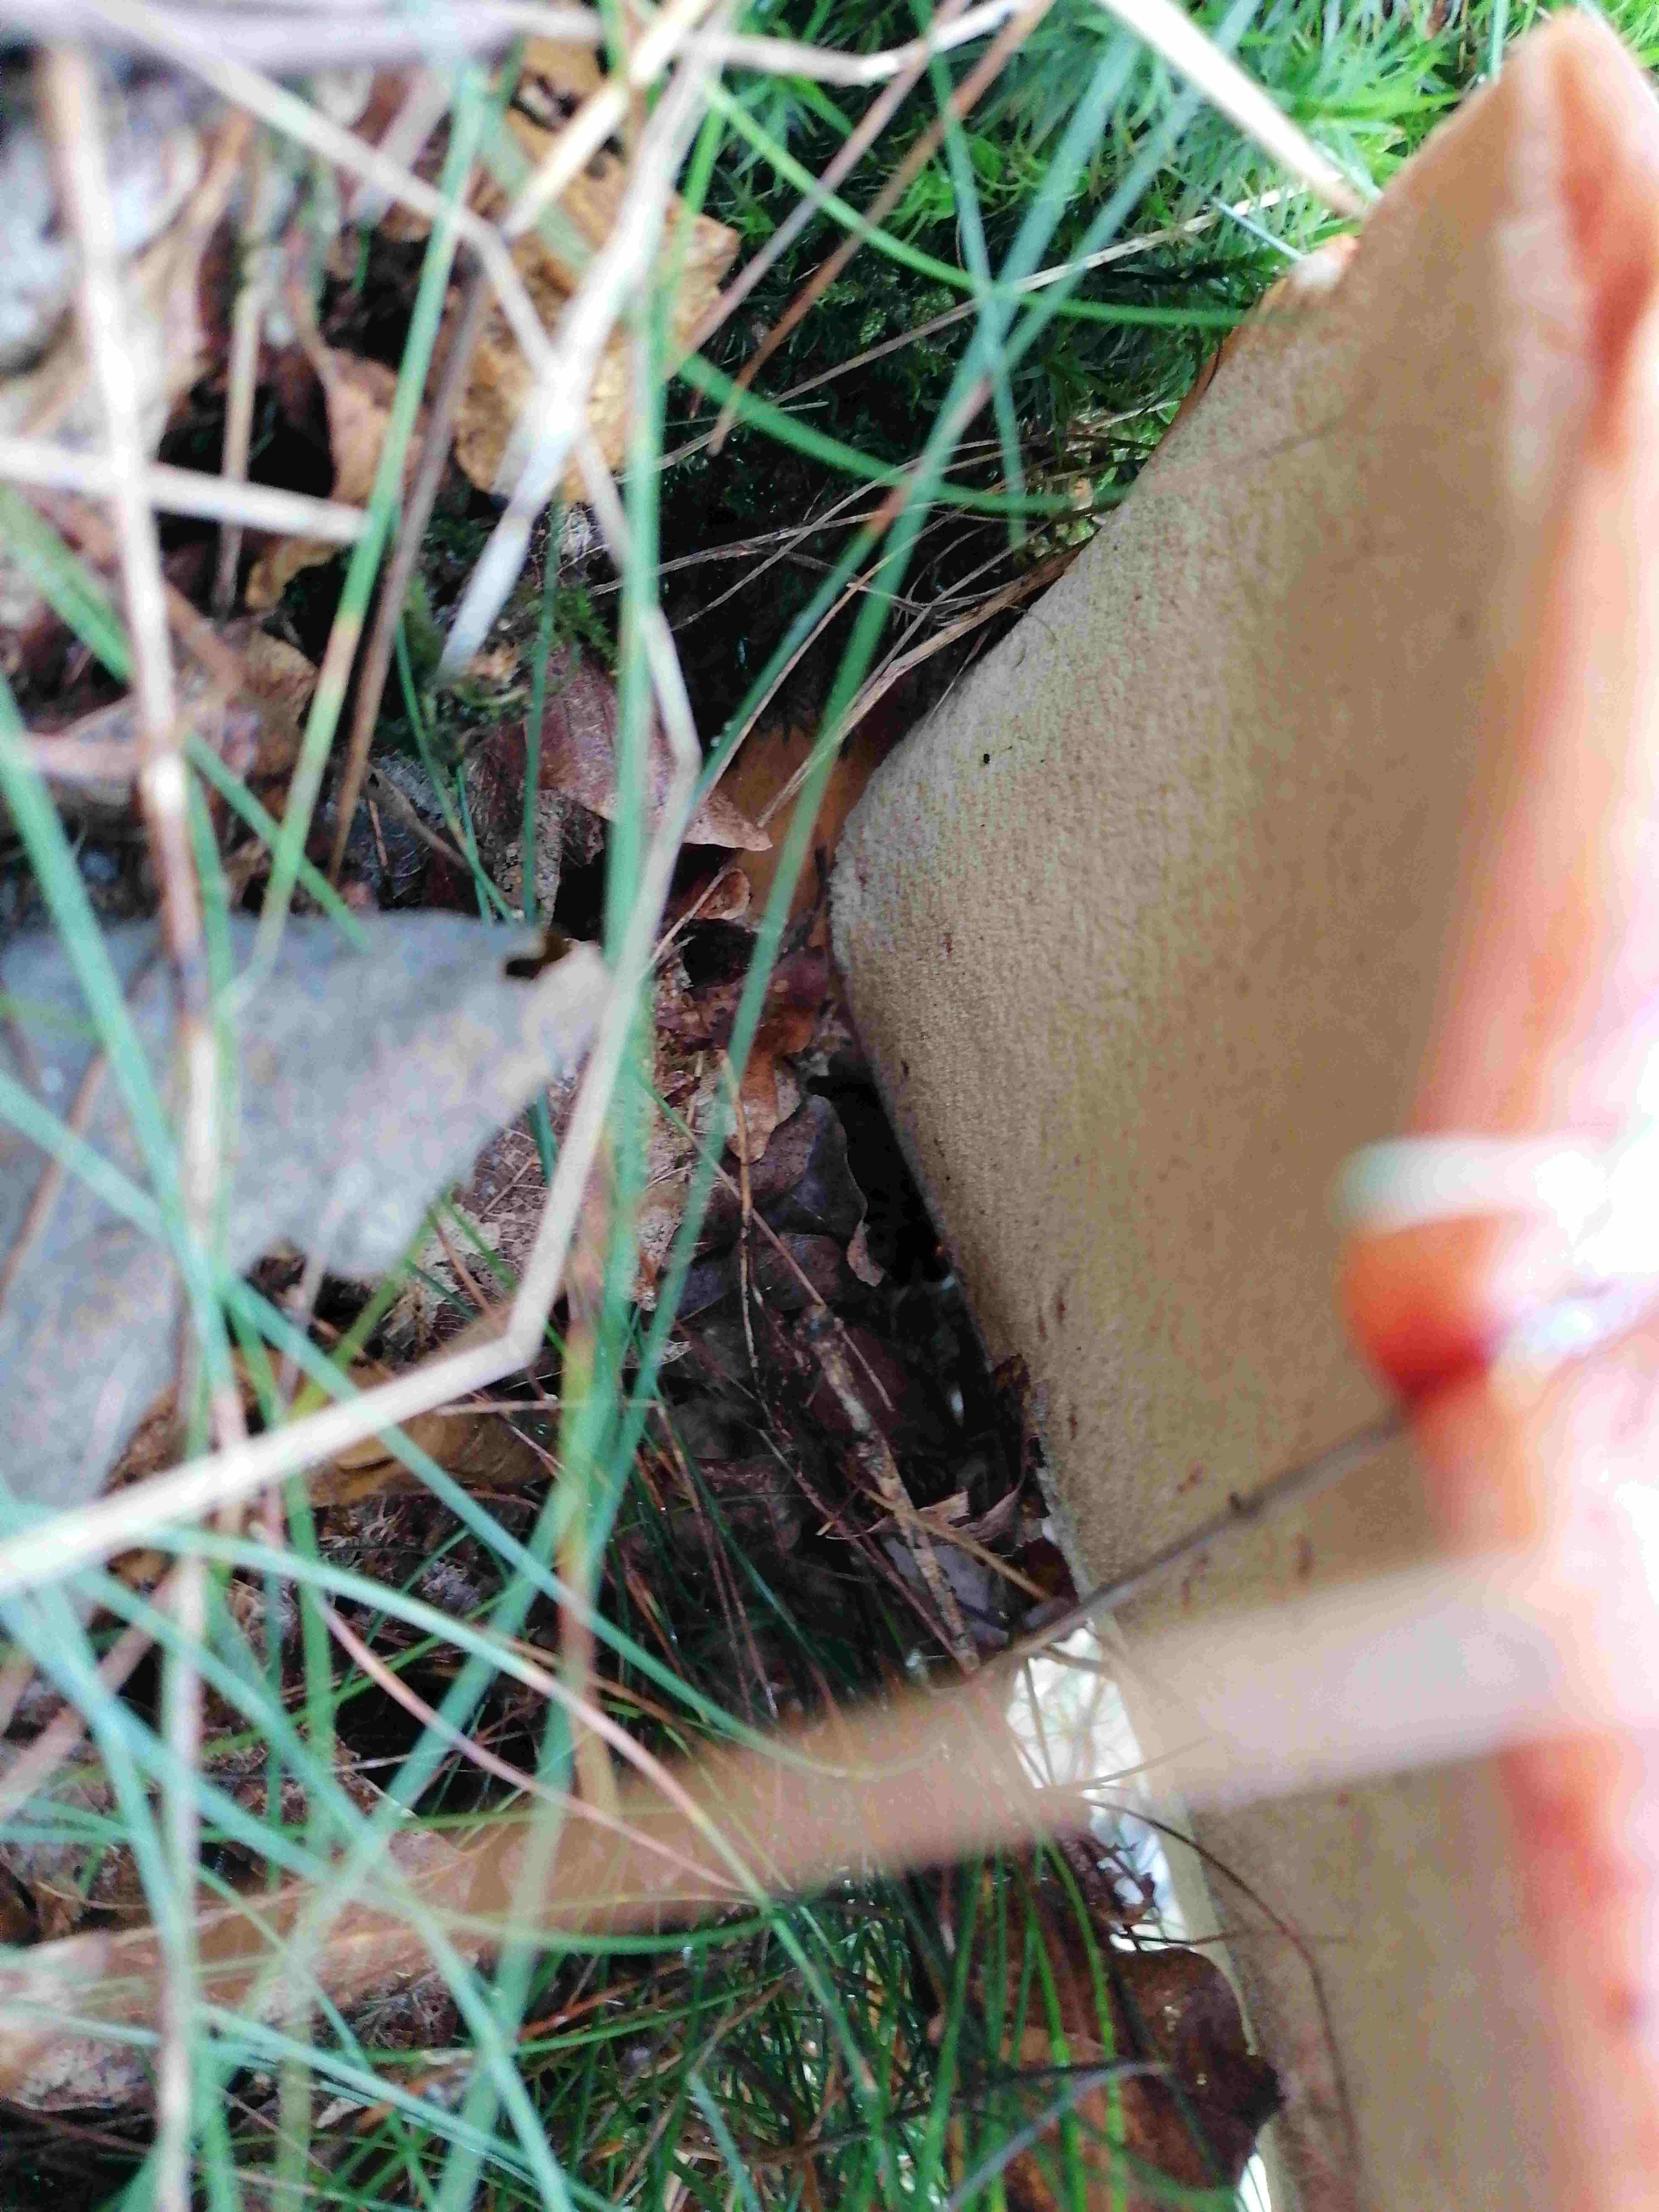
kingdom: Fungi
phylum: Basidiomycota
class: Agaricomycetes
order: Agaricales
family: Fistulinaceae
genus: Fistulina
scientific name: Fistulina hepatica
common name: oksetunge
